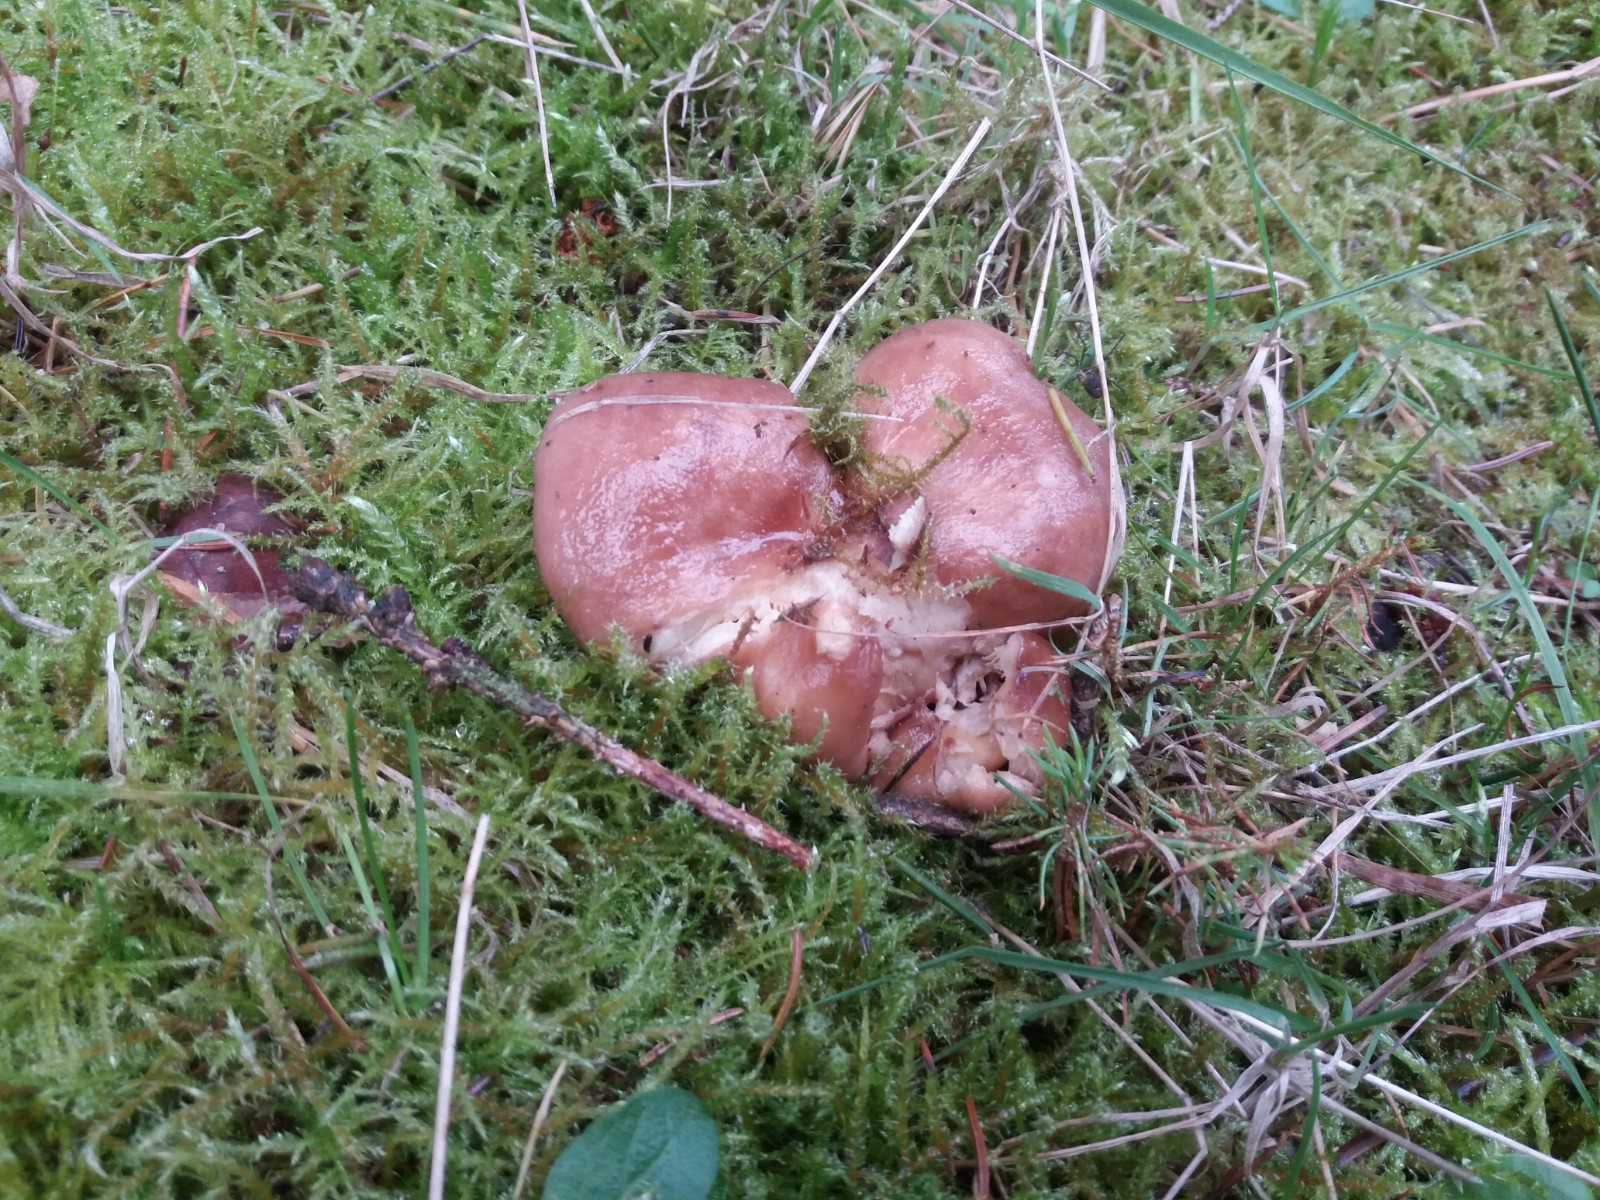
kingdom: Fungi
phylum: Basidiomycota
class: Agaricomycetes
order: Russulales
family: Russulaceae
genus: Lactarius
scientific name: Lactarius hysginus
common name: teglfarvet mælkehat
